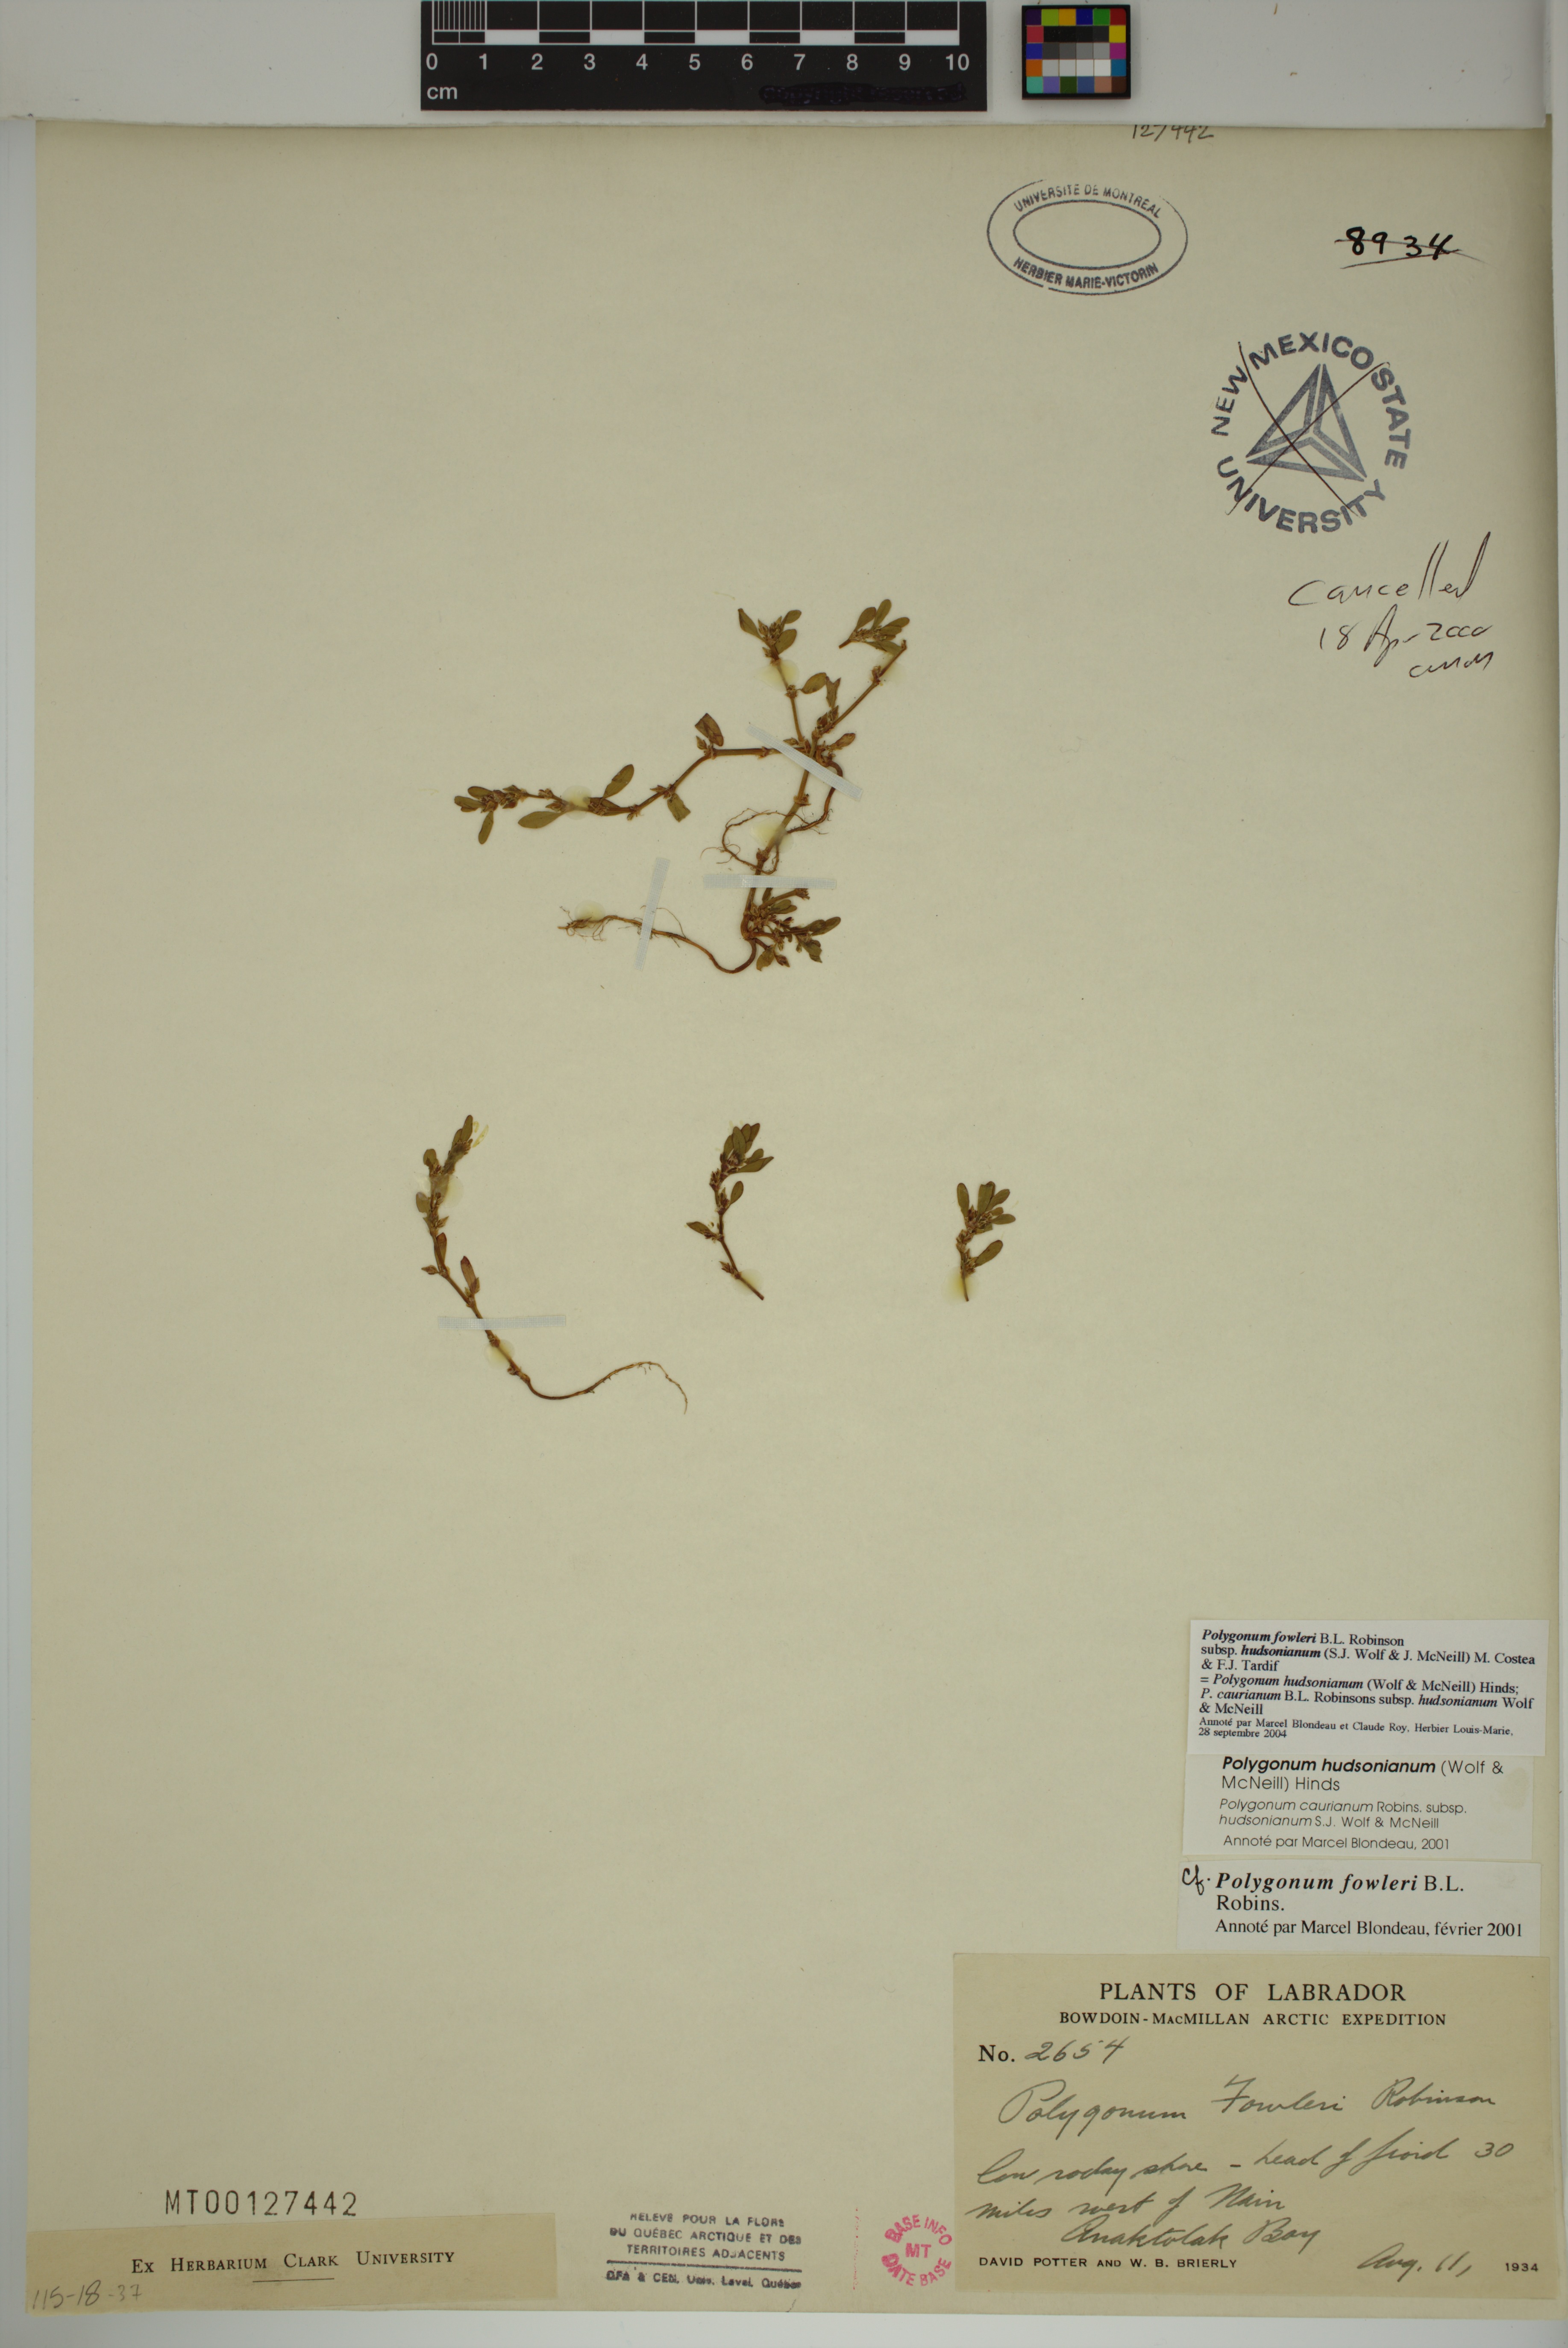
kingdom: Plantae
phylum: Tracheophyta
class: Magnoliopsida
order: Caryophyllales
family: Polygonaceae
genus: Polygonum
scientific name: Polygonum fowleri
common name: Fowler's knotweed
